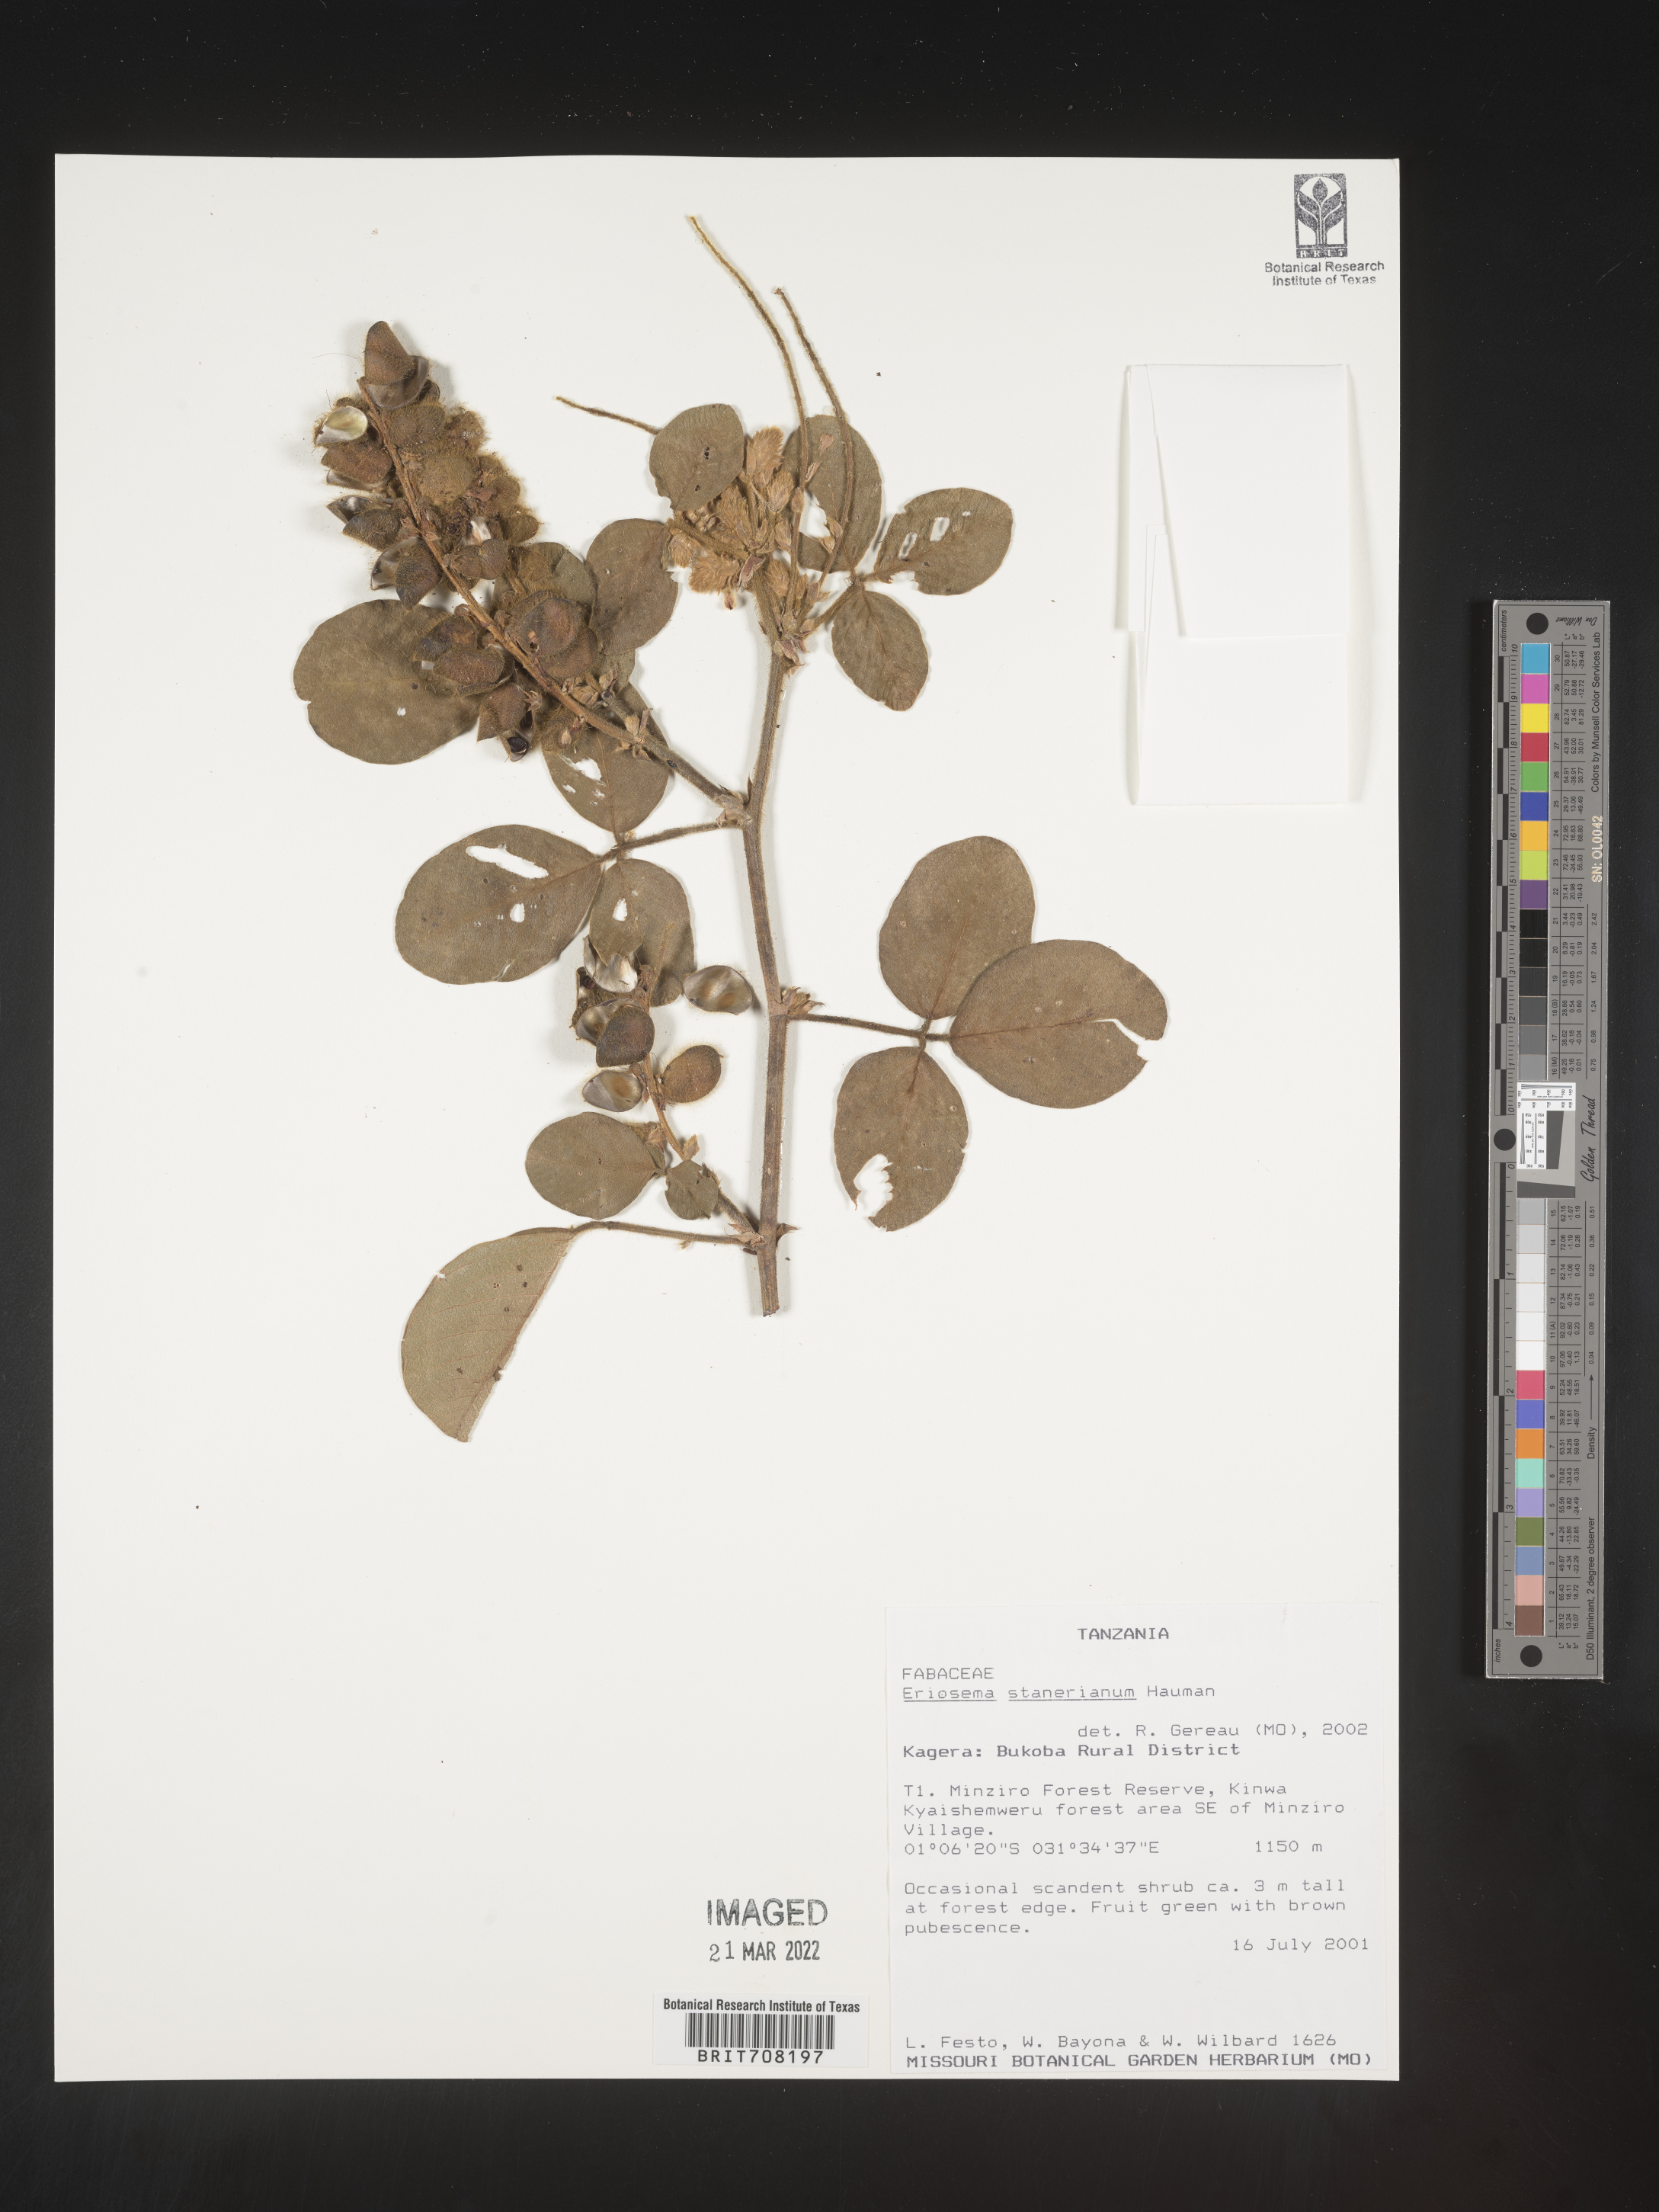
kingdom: Plantae
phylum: Tracheophyta
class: Magnoliopsida
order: Fabales
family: Fabaceae
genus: Eriosema
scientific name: Eriosema
